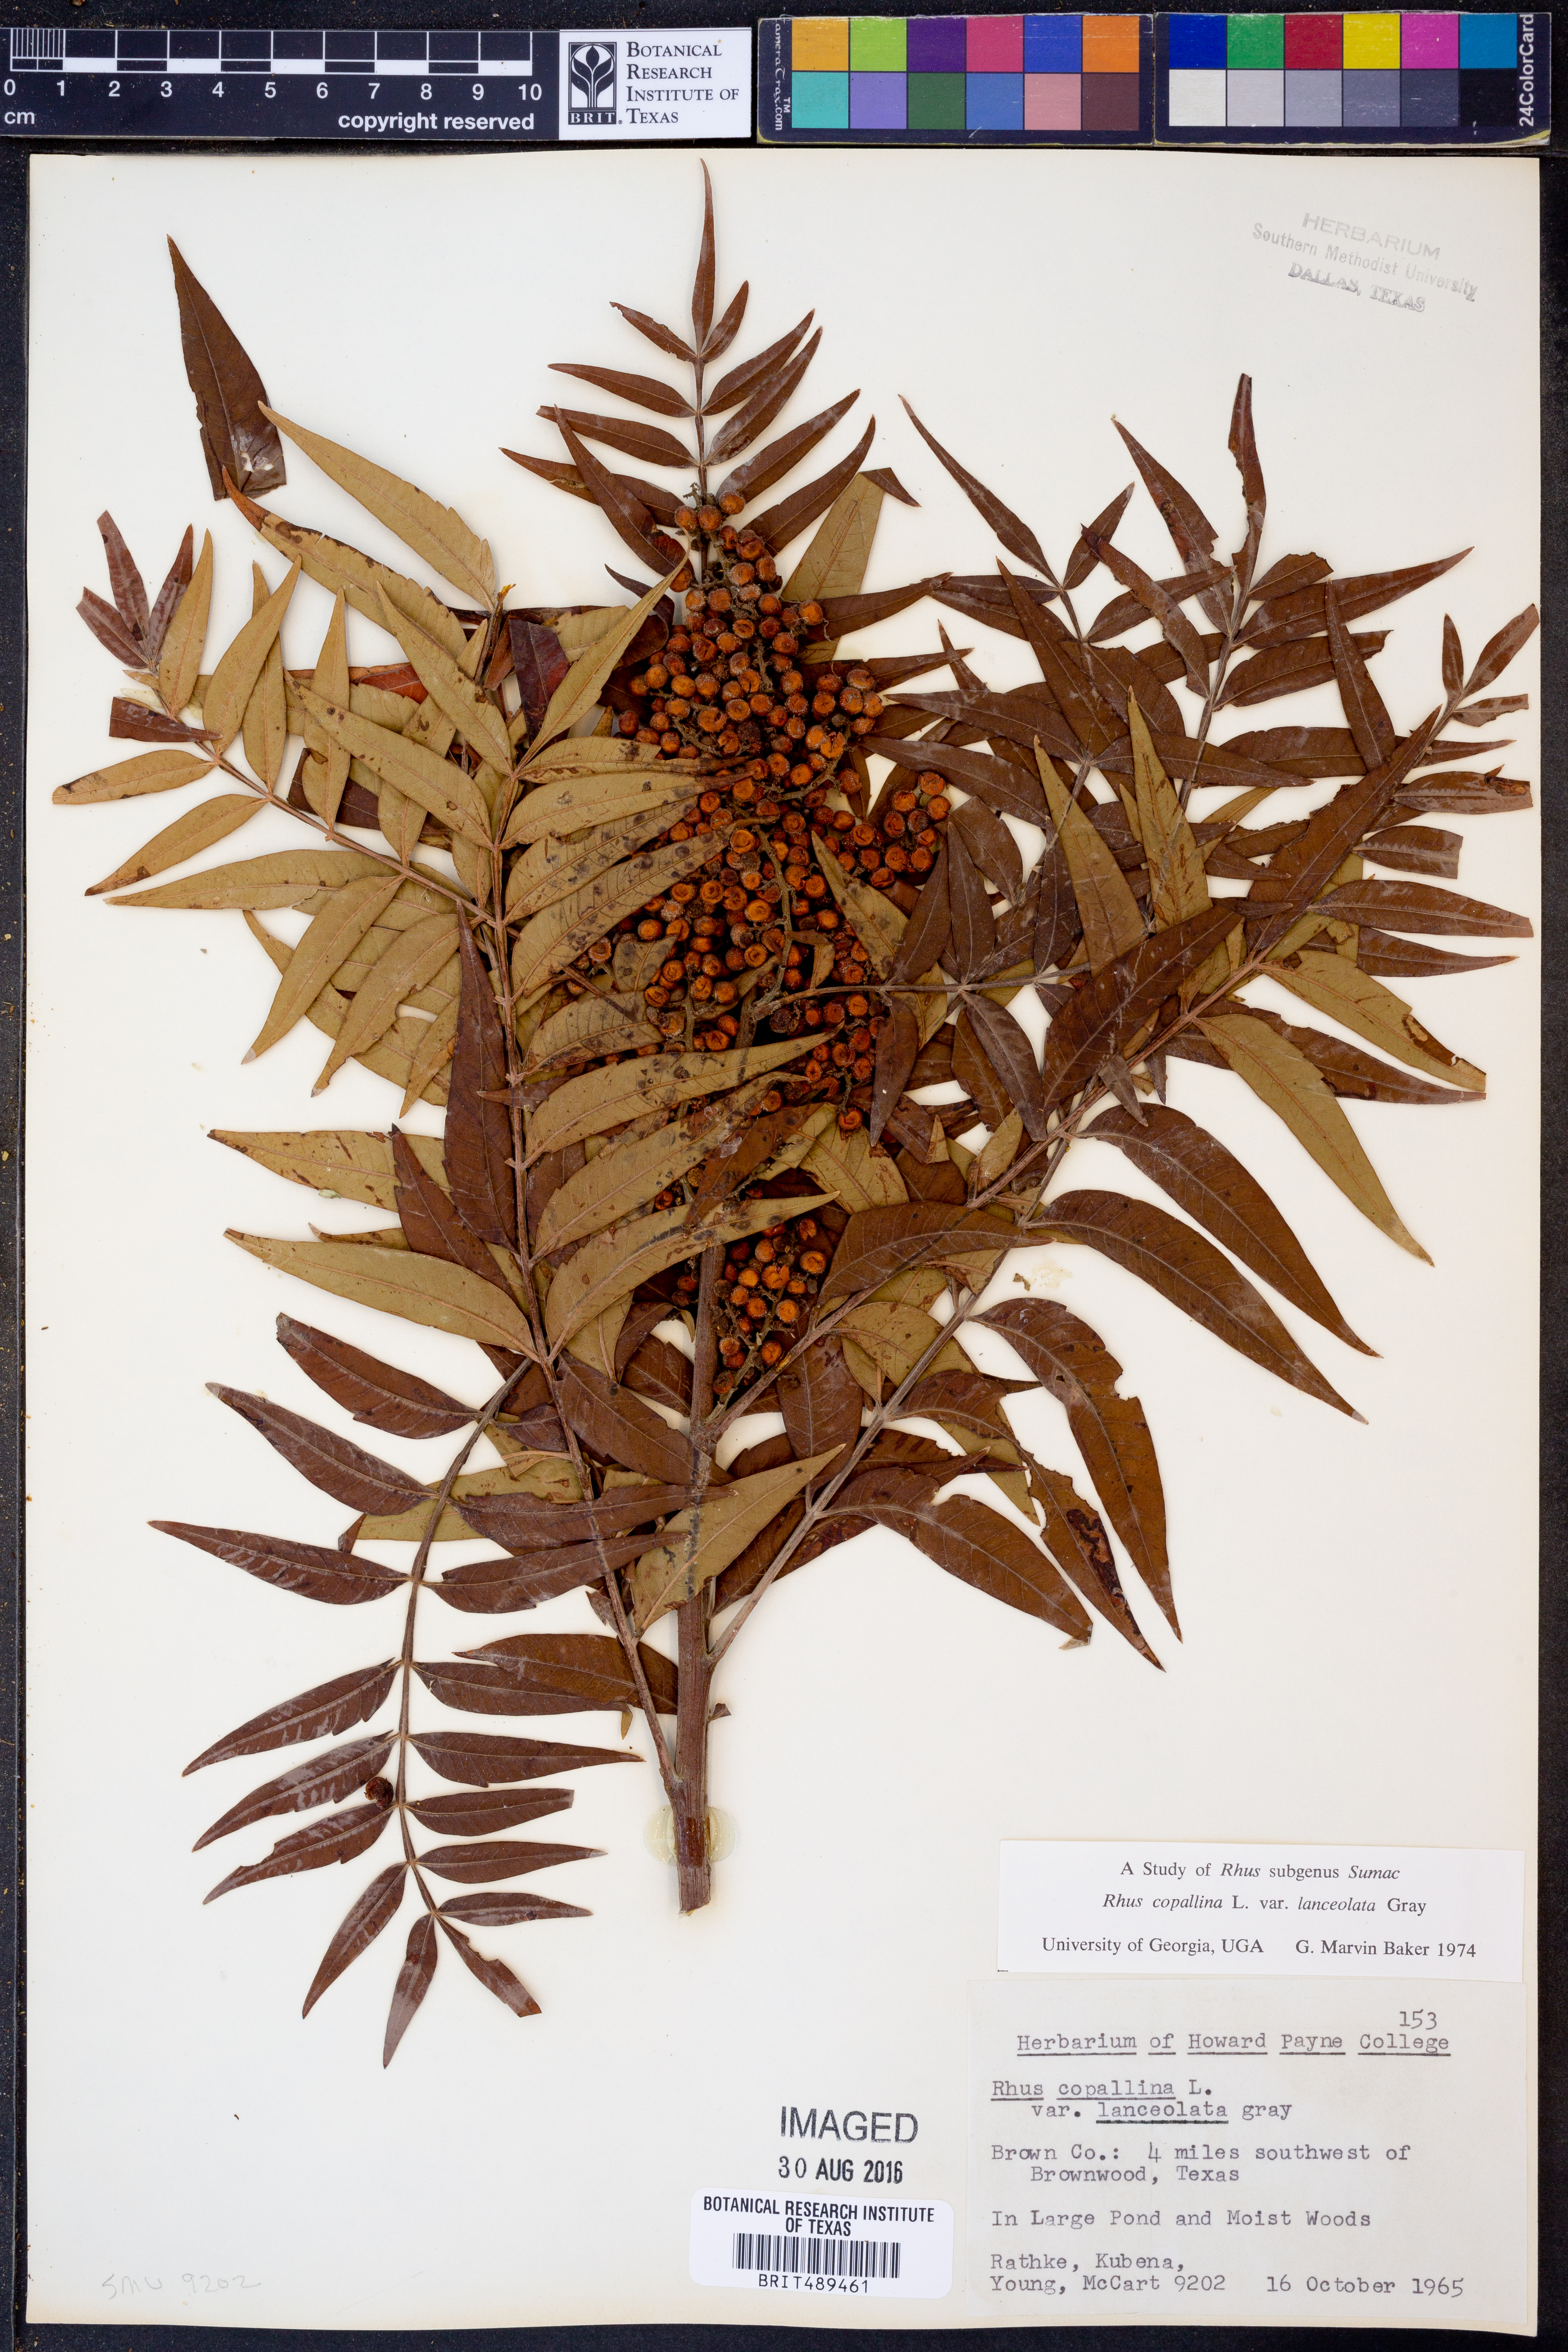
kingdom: Plantae
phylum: Tracheophyta
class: Magnoliopsida
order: Sapindales
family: Anacardiaceae
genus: Rhus
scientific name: Rhus lanceolata
